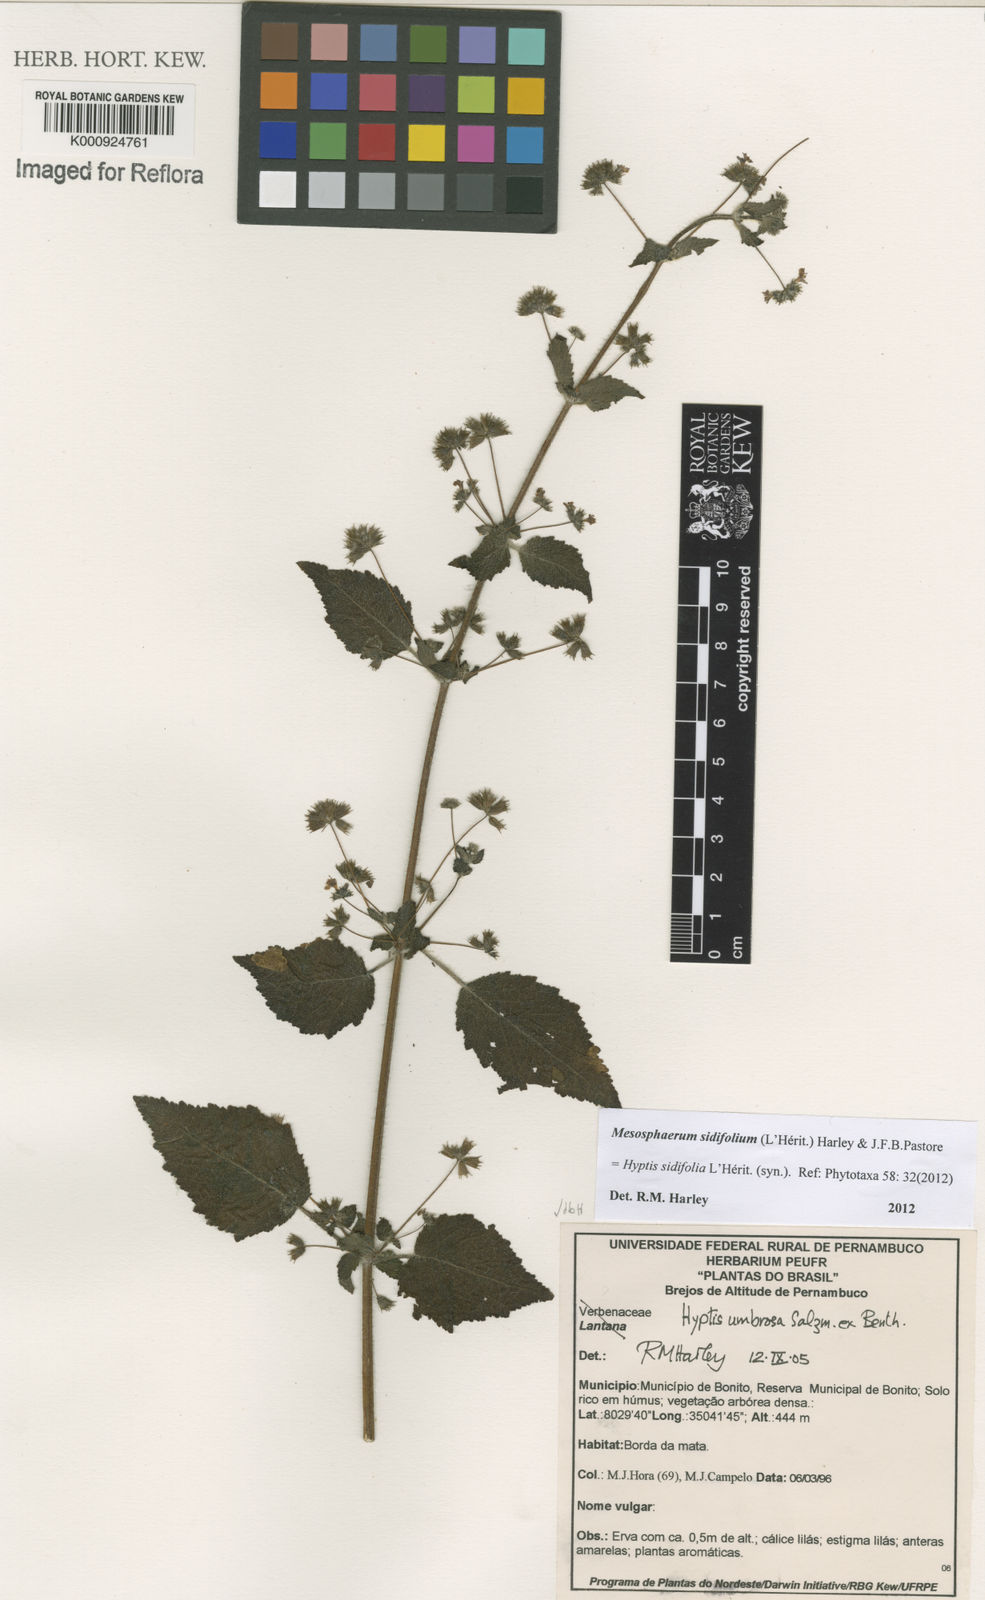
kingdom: Plantae
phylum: Tracheophyta
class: Magnoliopsida
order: Lamiales
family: Lamiaceae
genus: Mesosphaerum
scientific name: Mesosphaerum sidifolium
